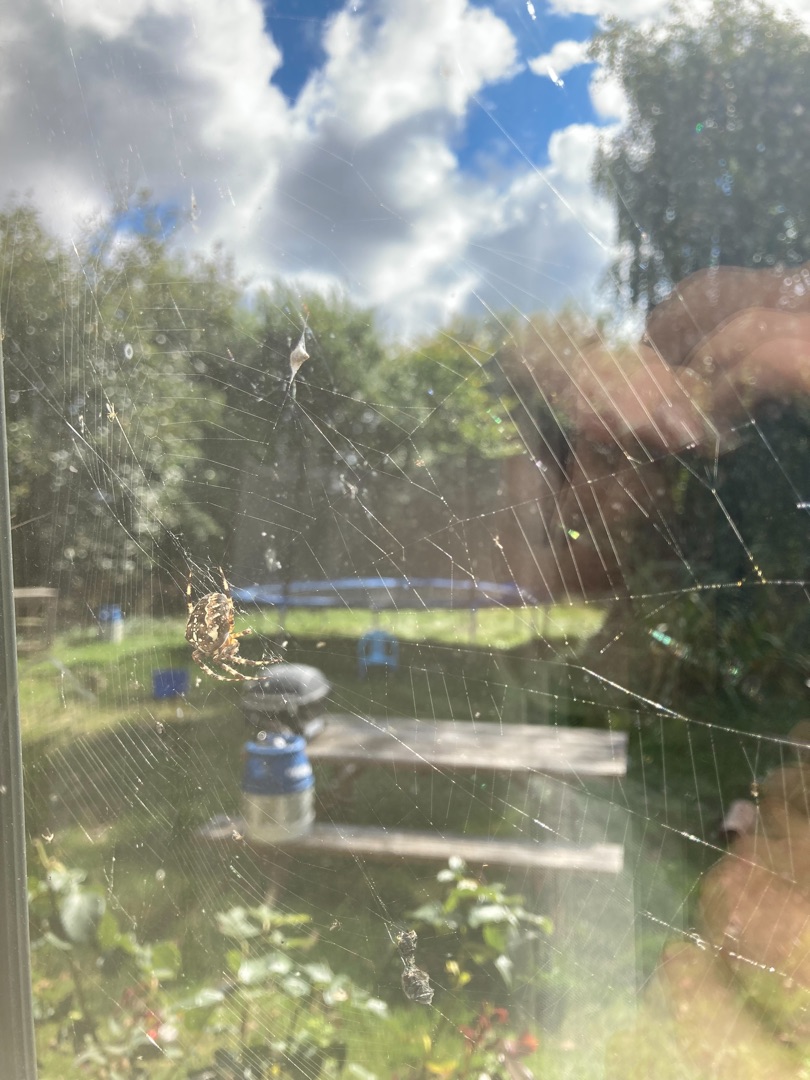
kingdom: Animalia
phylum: Arthropoda
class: Arachnida
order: Araneae
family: Araneidae
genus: Araneus
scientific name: Araneus diadematus
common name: Korsedderkop
